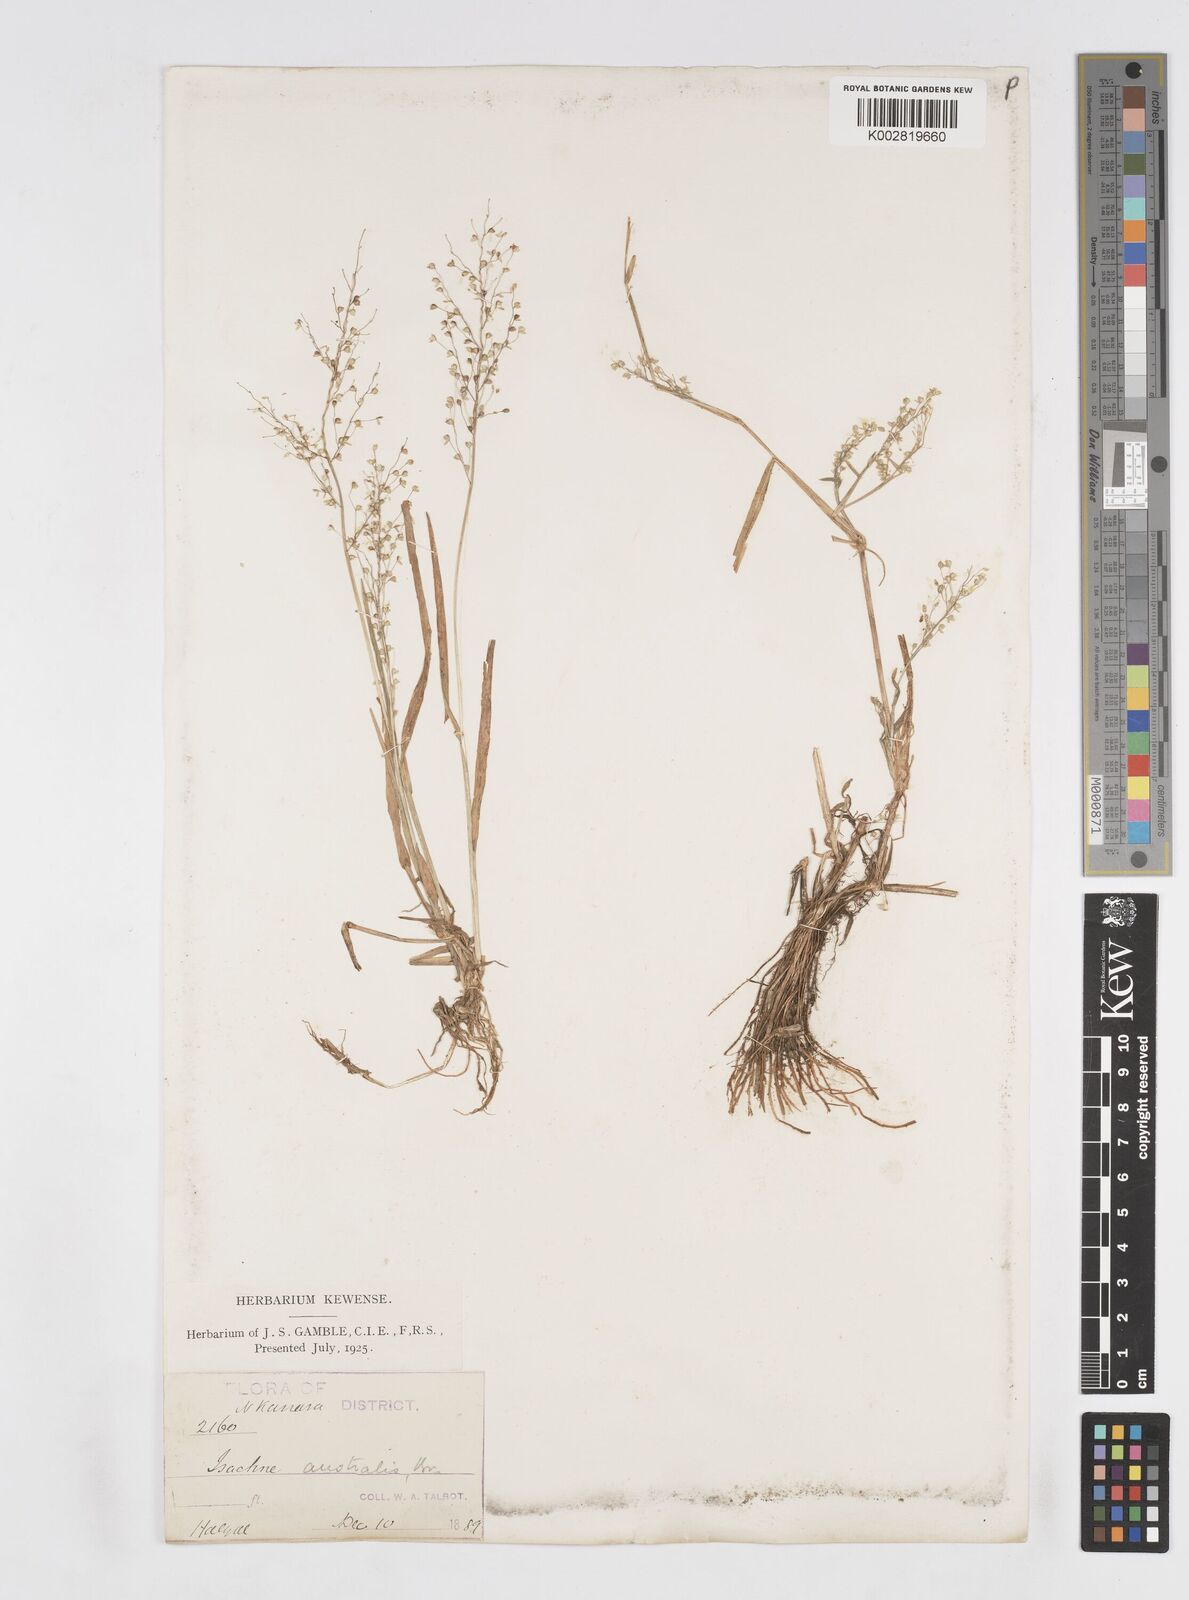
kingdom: Plantae
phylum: Tracheophyta
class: Liliopsida
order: Poales
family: Poaceae
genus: Isachne
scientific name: Isachne globosa
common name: Swamp millet
